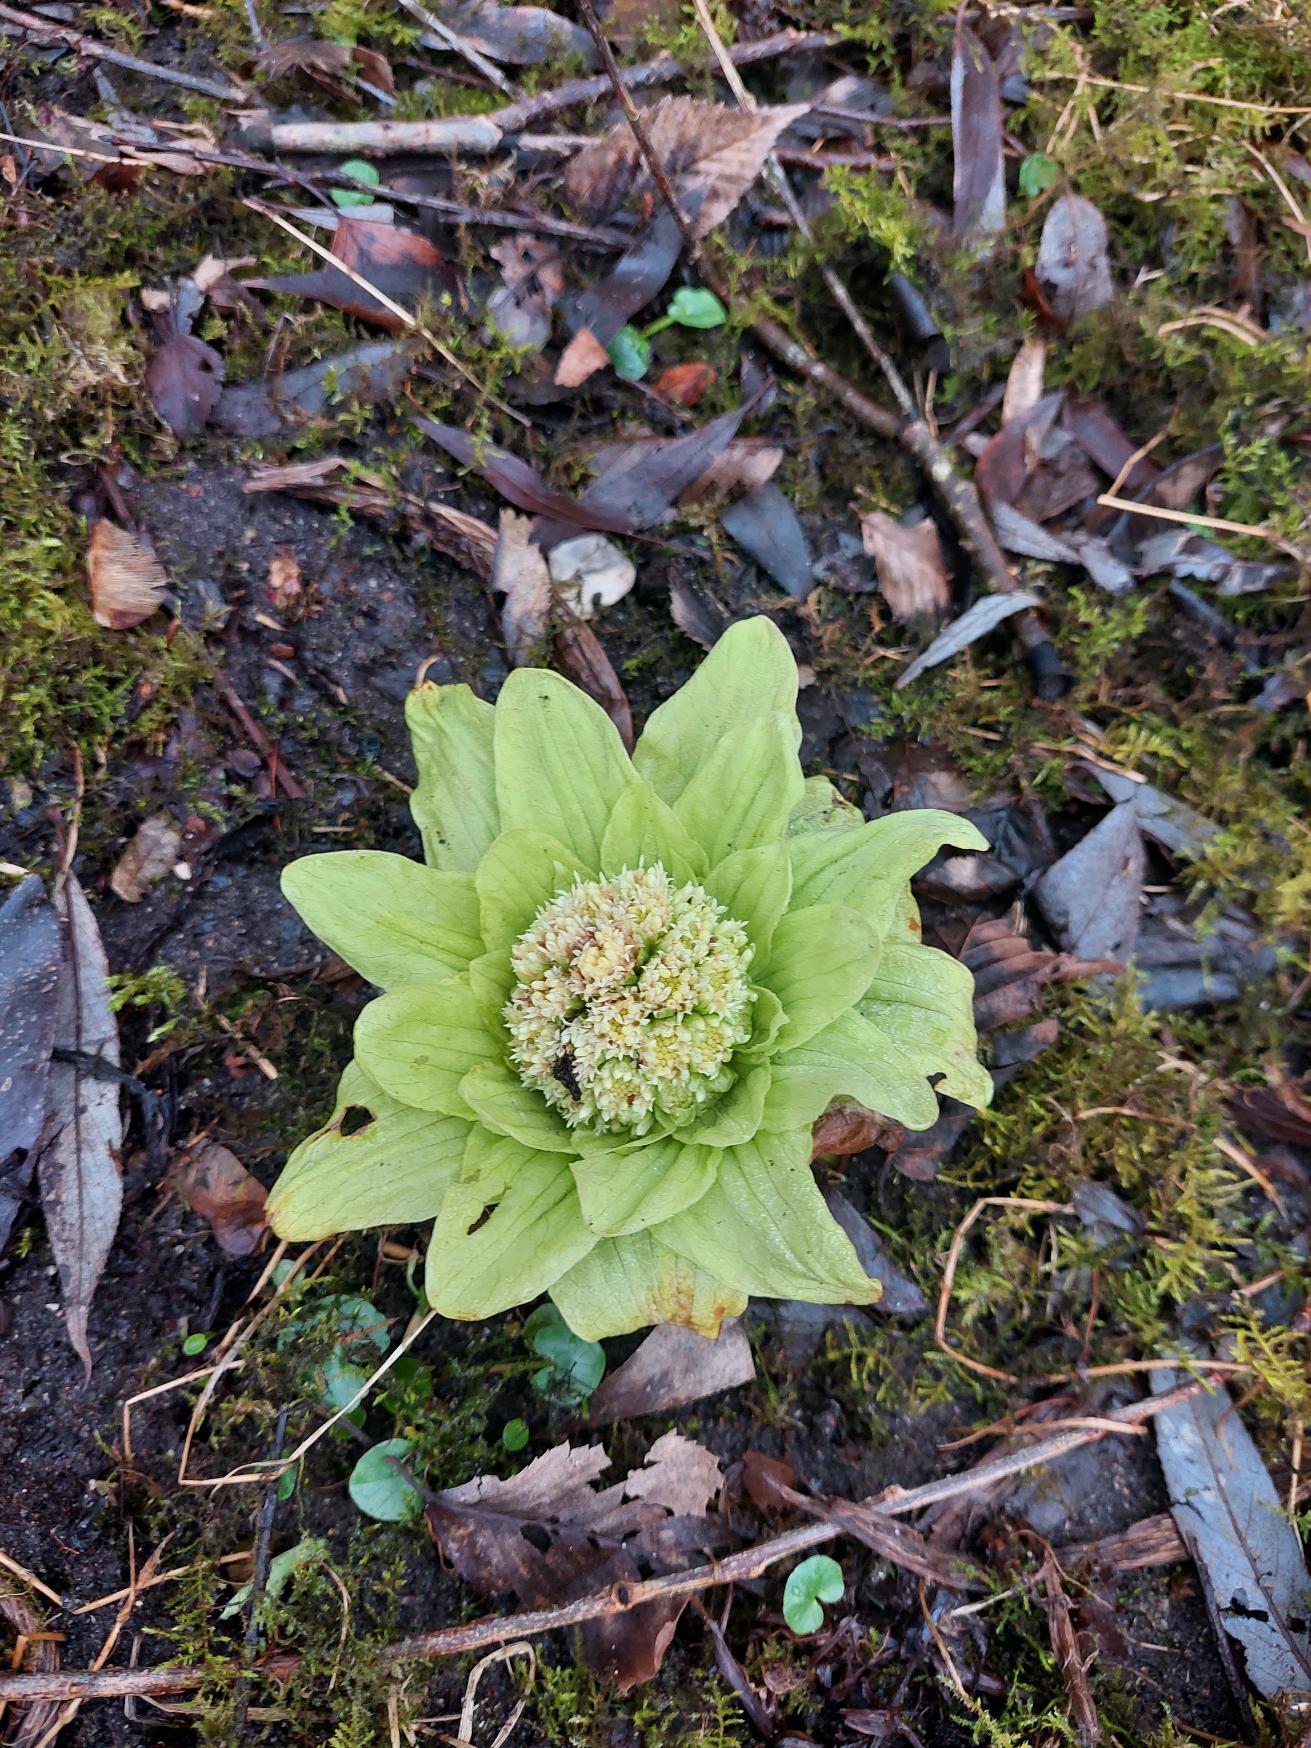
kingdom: Plantae
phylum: Tracheophyta
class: Magnoliopsida
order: Asterales
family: Asteraceae
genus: Petasites
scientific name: Petasites japonicus
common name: Japansk hestehov
